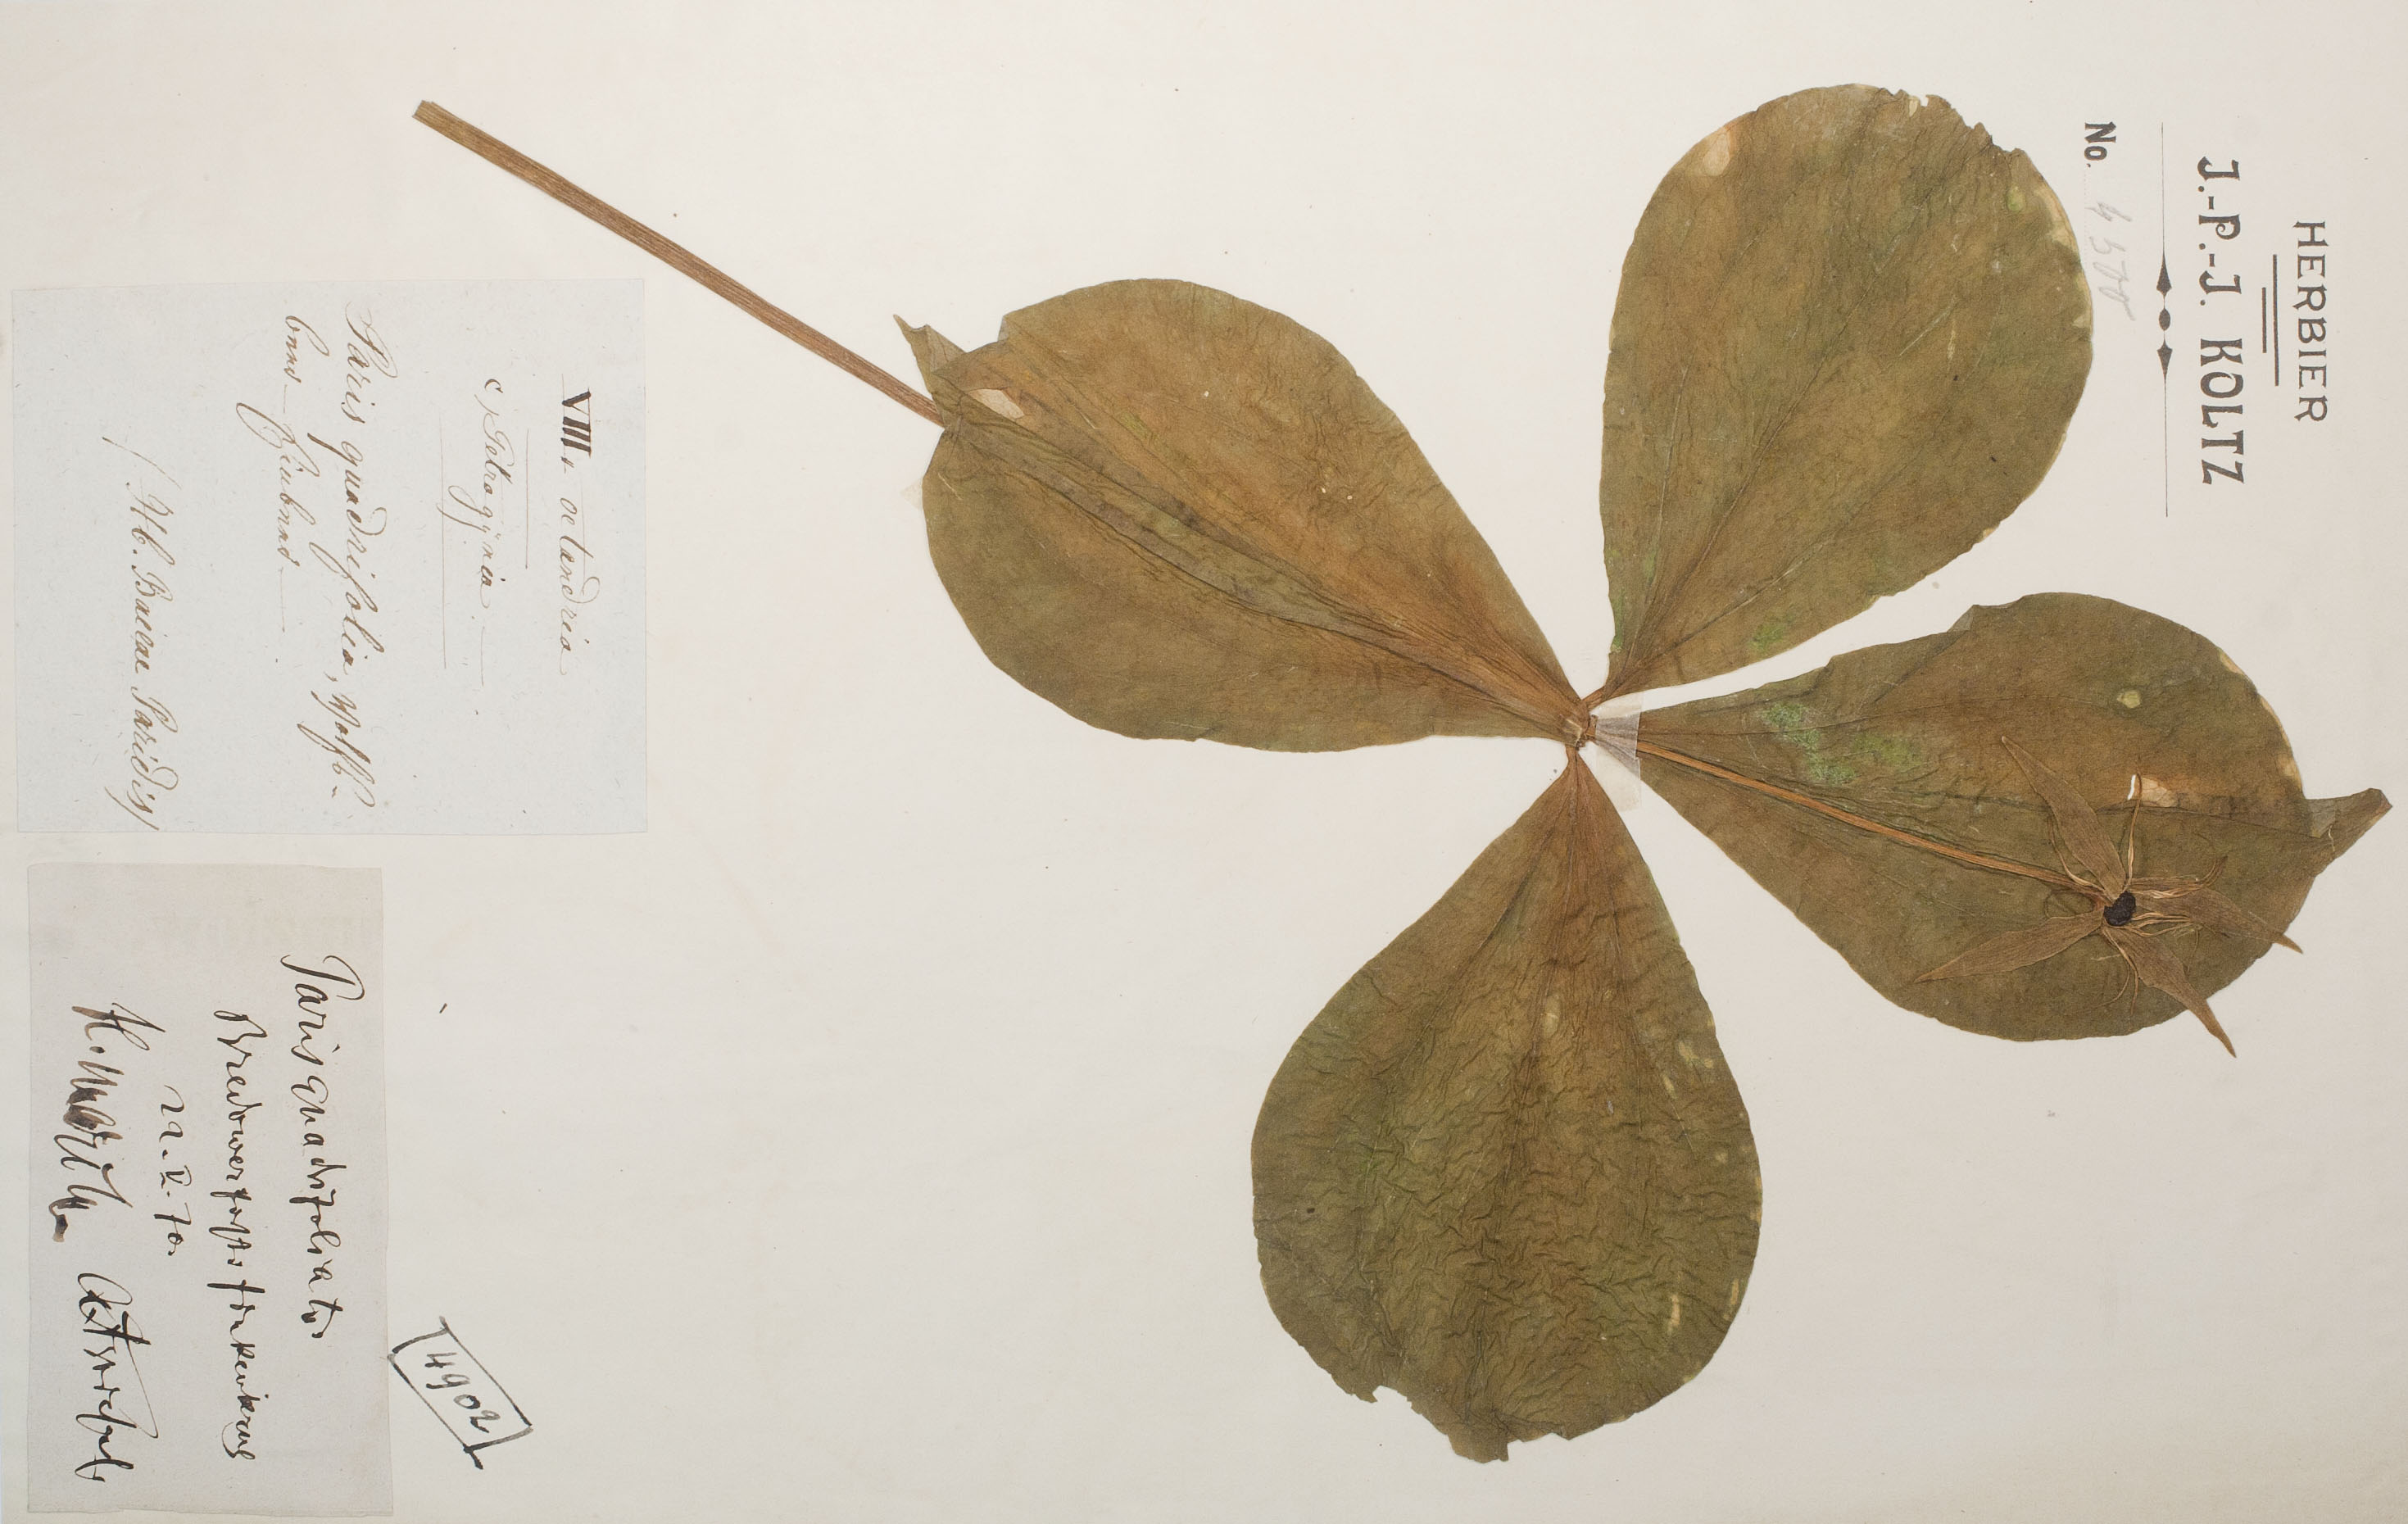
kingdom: Plantae
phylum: Tracheophyta
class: Liliopsida
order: Liliales
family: Melanthiaceae
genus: Paris
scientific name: Paris quadrifolia
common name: Herb-paris
